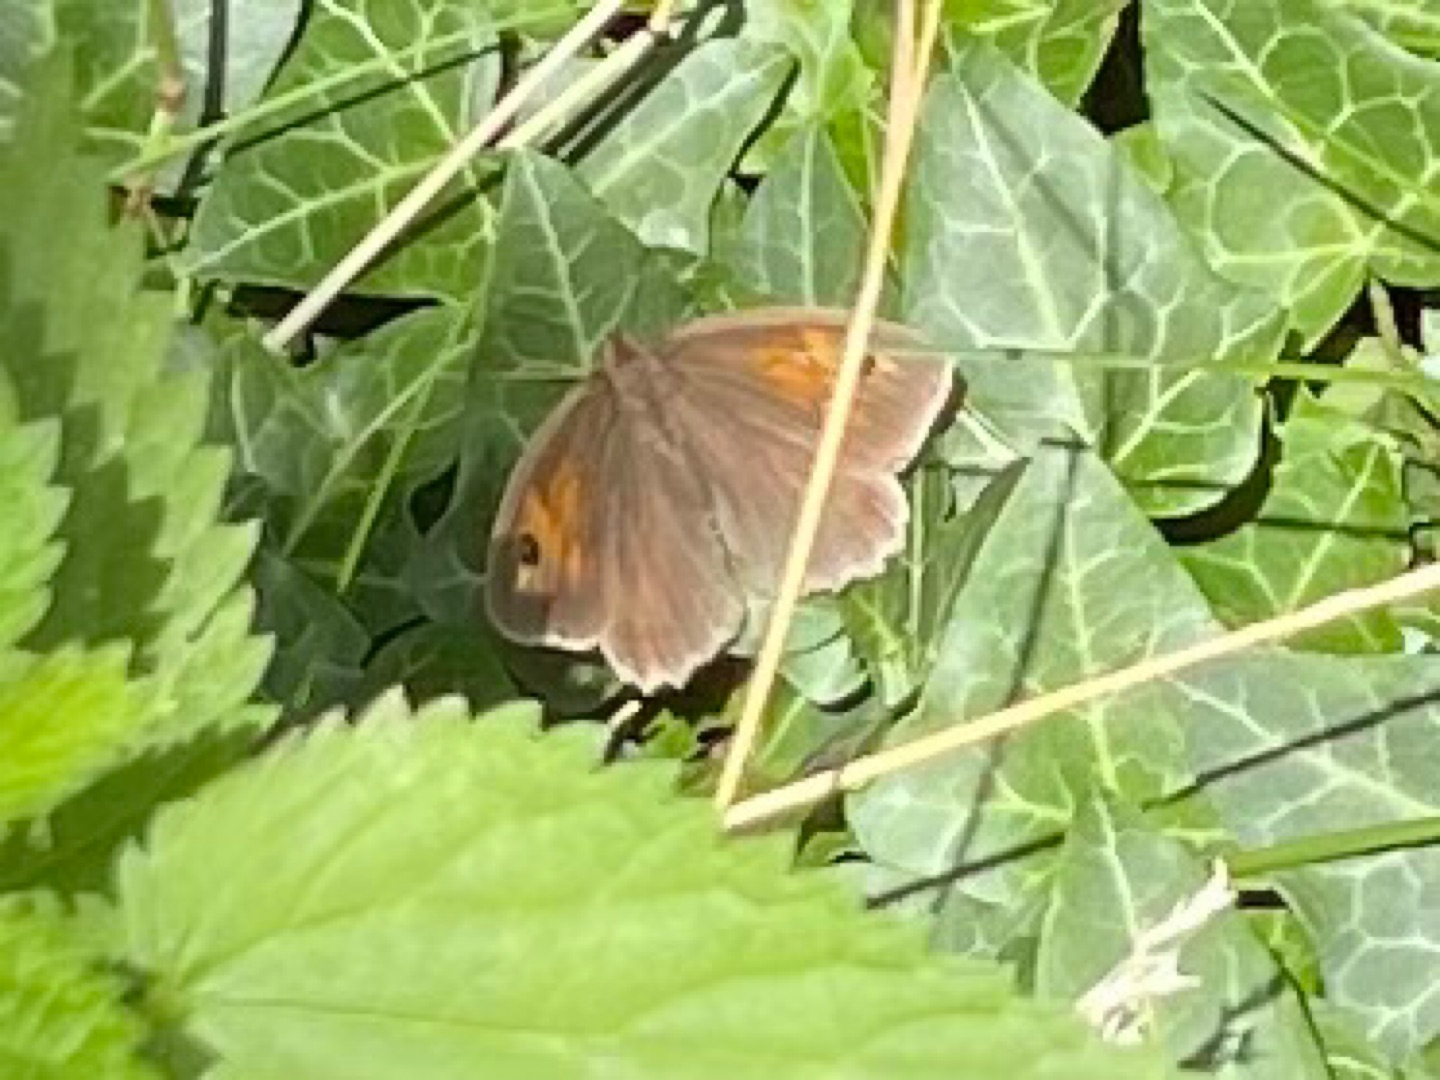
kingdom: Animalia
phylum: Arthropoda
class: Insecta
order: Lepidoptera
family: Nymphalidae
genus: Maniola
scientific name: Maniola jurtina
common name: Græsrandøje
